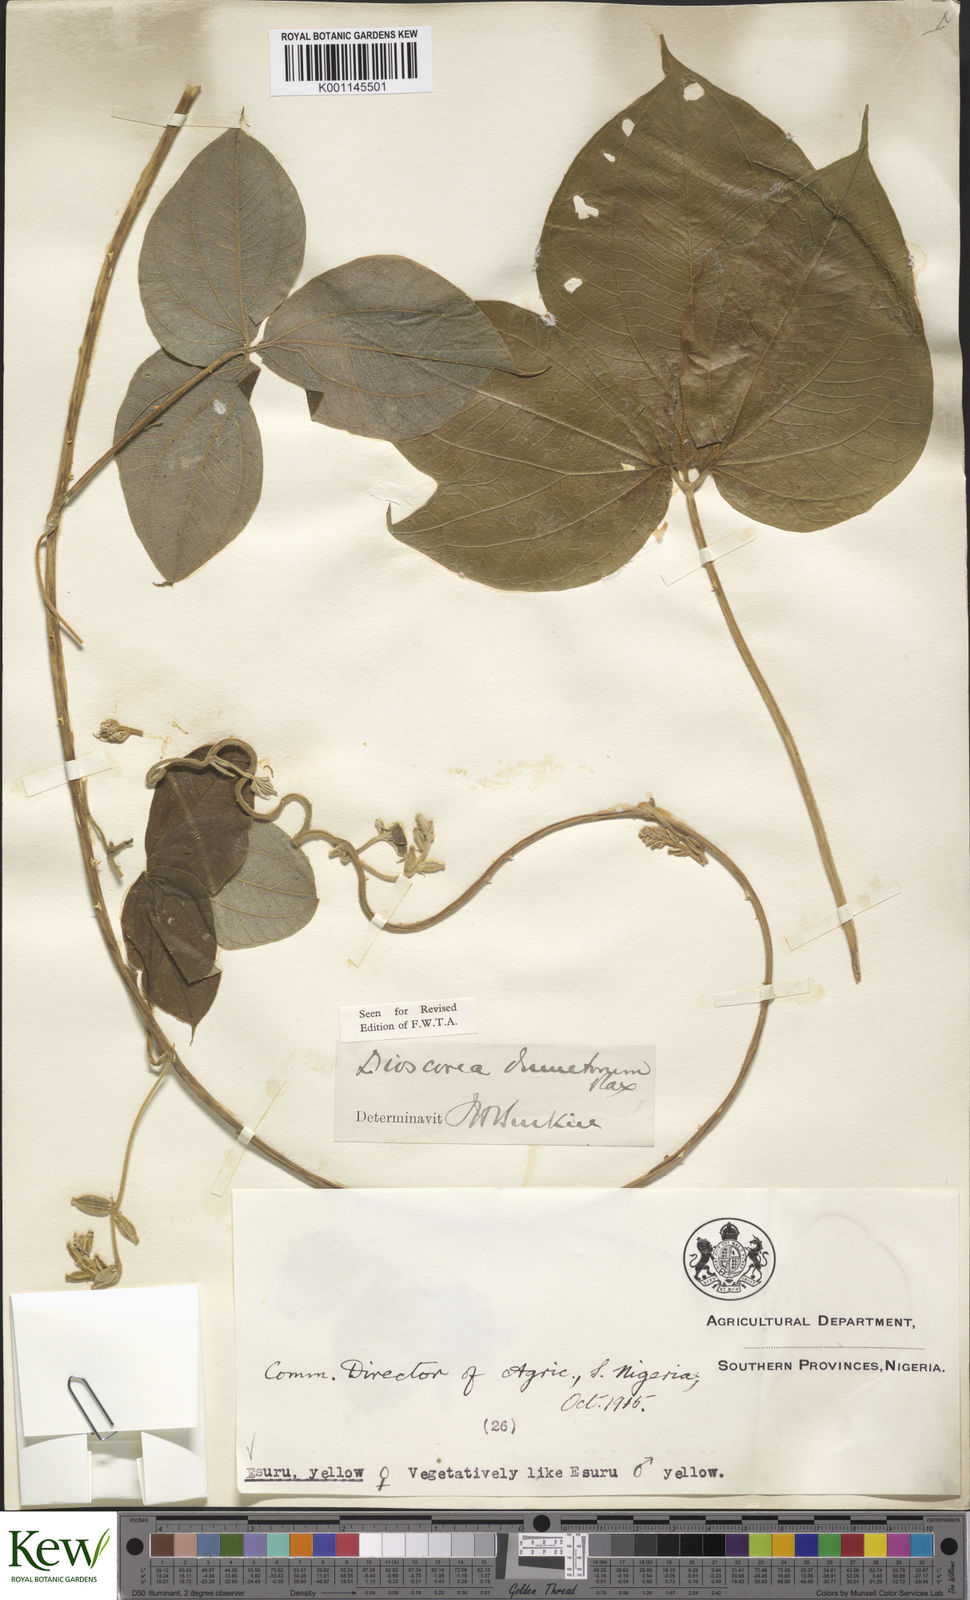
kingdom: Plantae
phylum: Tracheophyta
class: Liliopsida
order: Dioscoreales
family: Dioscoreaceae
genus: Dioscorea
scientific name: Dioscorea dumetorum
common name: African bitter yam
